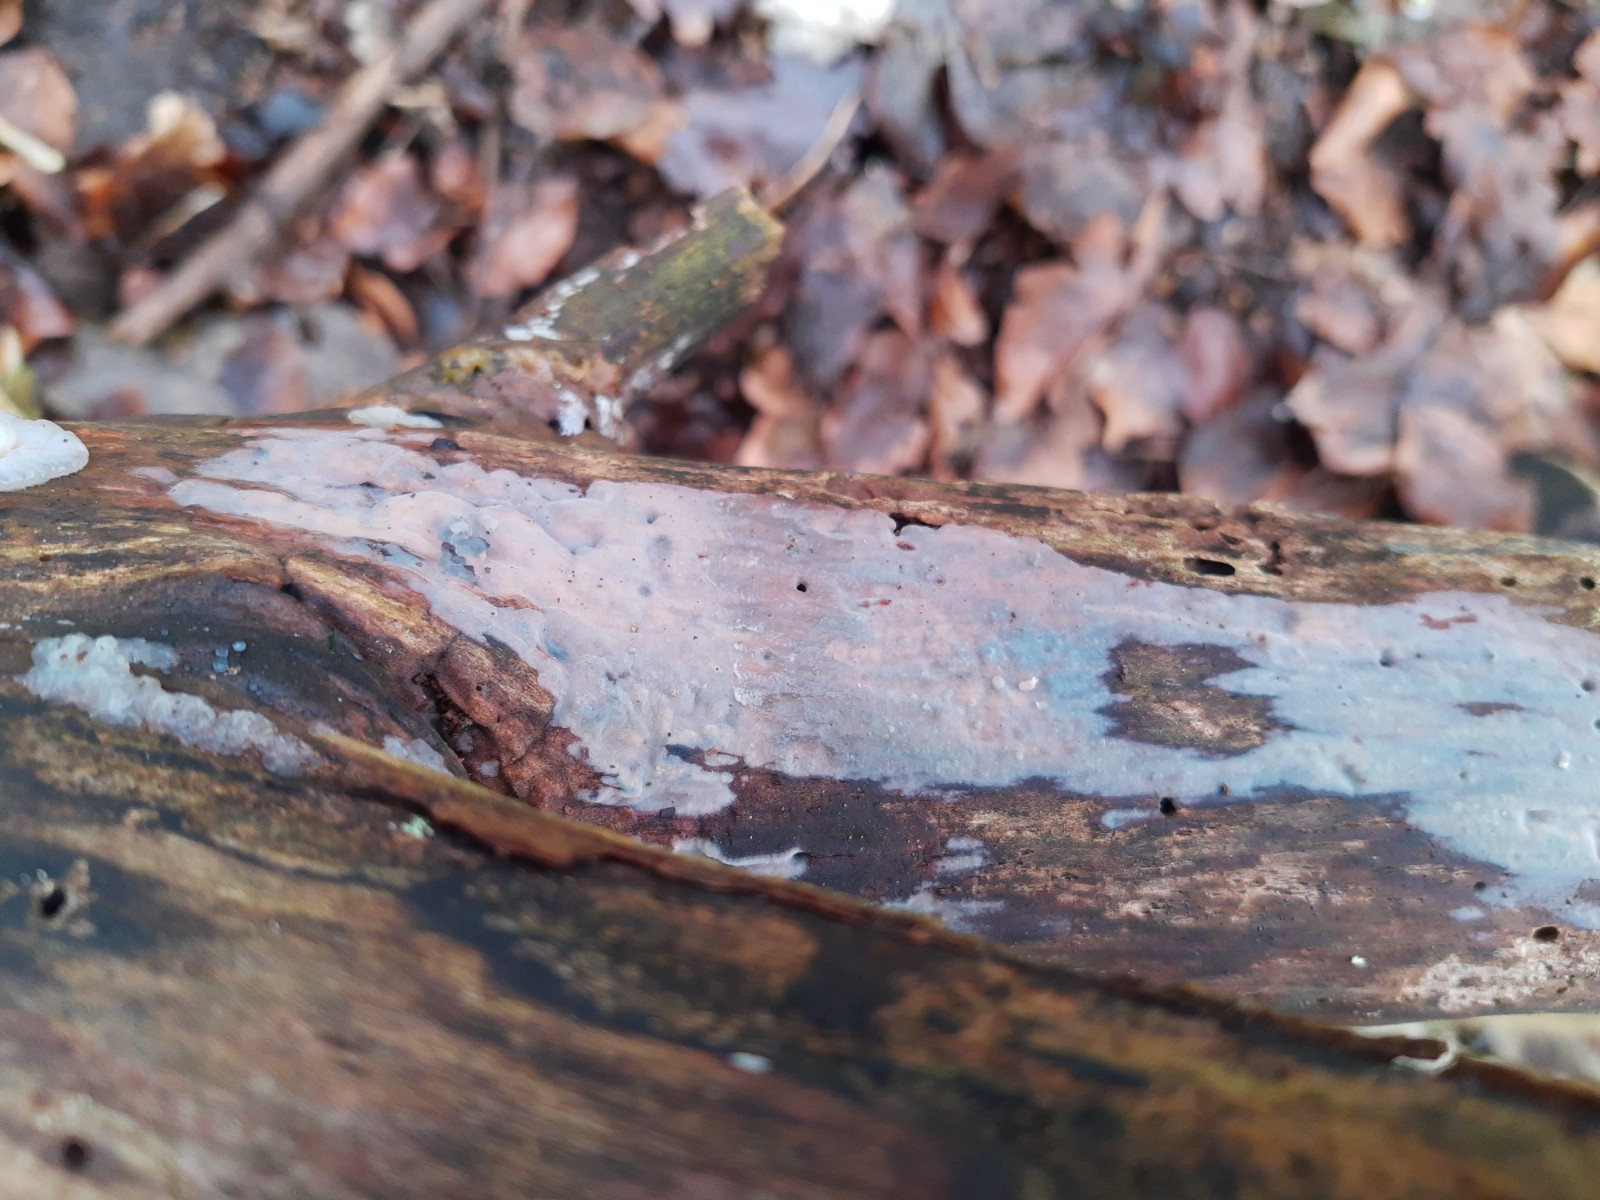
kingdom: Fungi
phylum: Basidiomycota
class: Agaricomycetes
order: Auriculariales
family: Auriculariaceae
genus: Exidia
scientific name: Exidia thuretiana
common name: hvidlig bævretop
